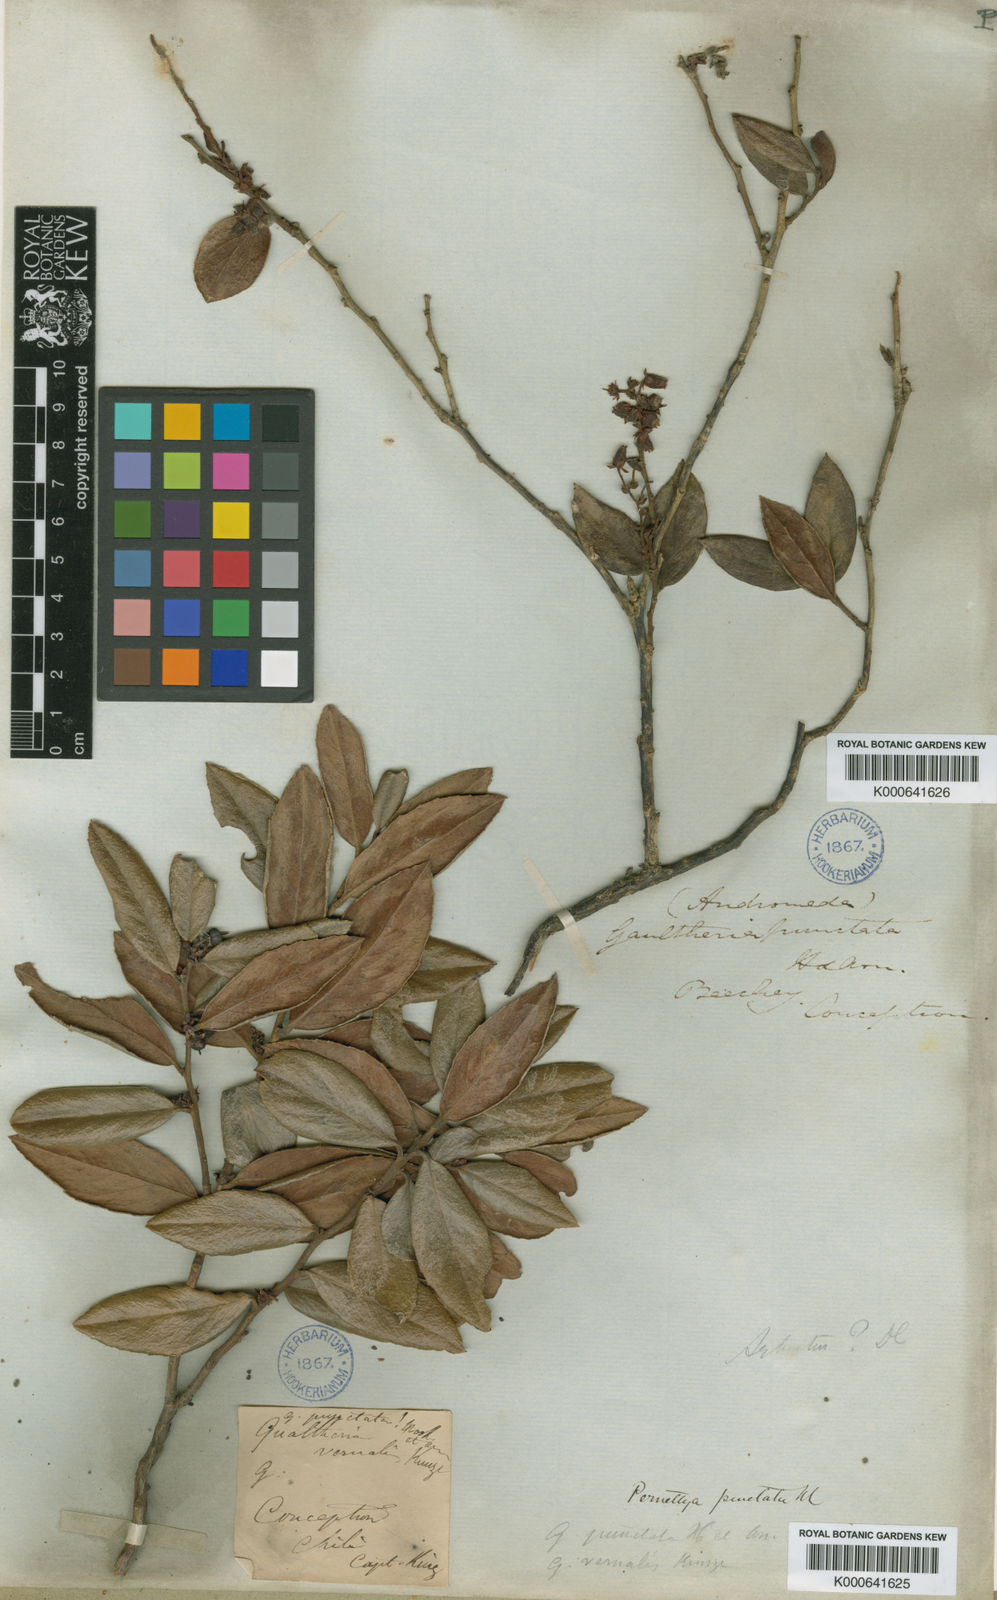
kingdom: Plantae
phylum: Tracheophyta
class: Magnoliopsida
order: Ericales
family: Ericaceae
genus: Gaultheria
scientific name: Gaultheria insana
